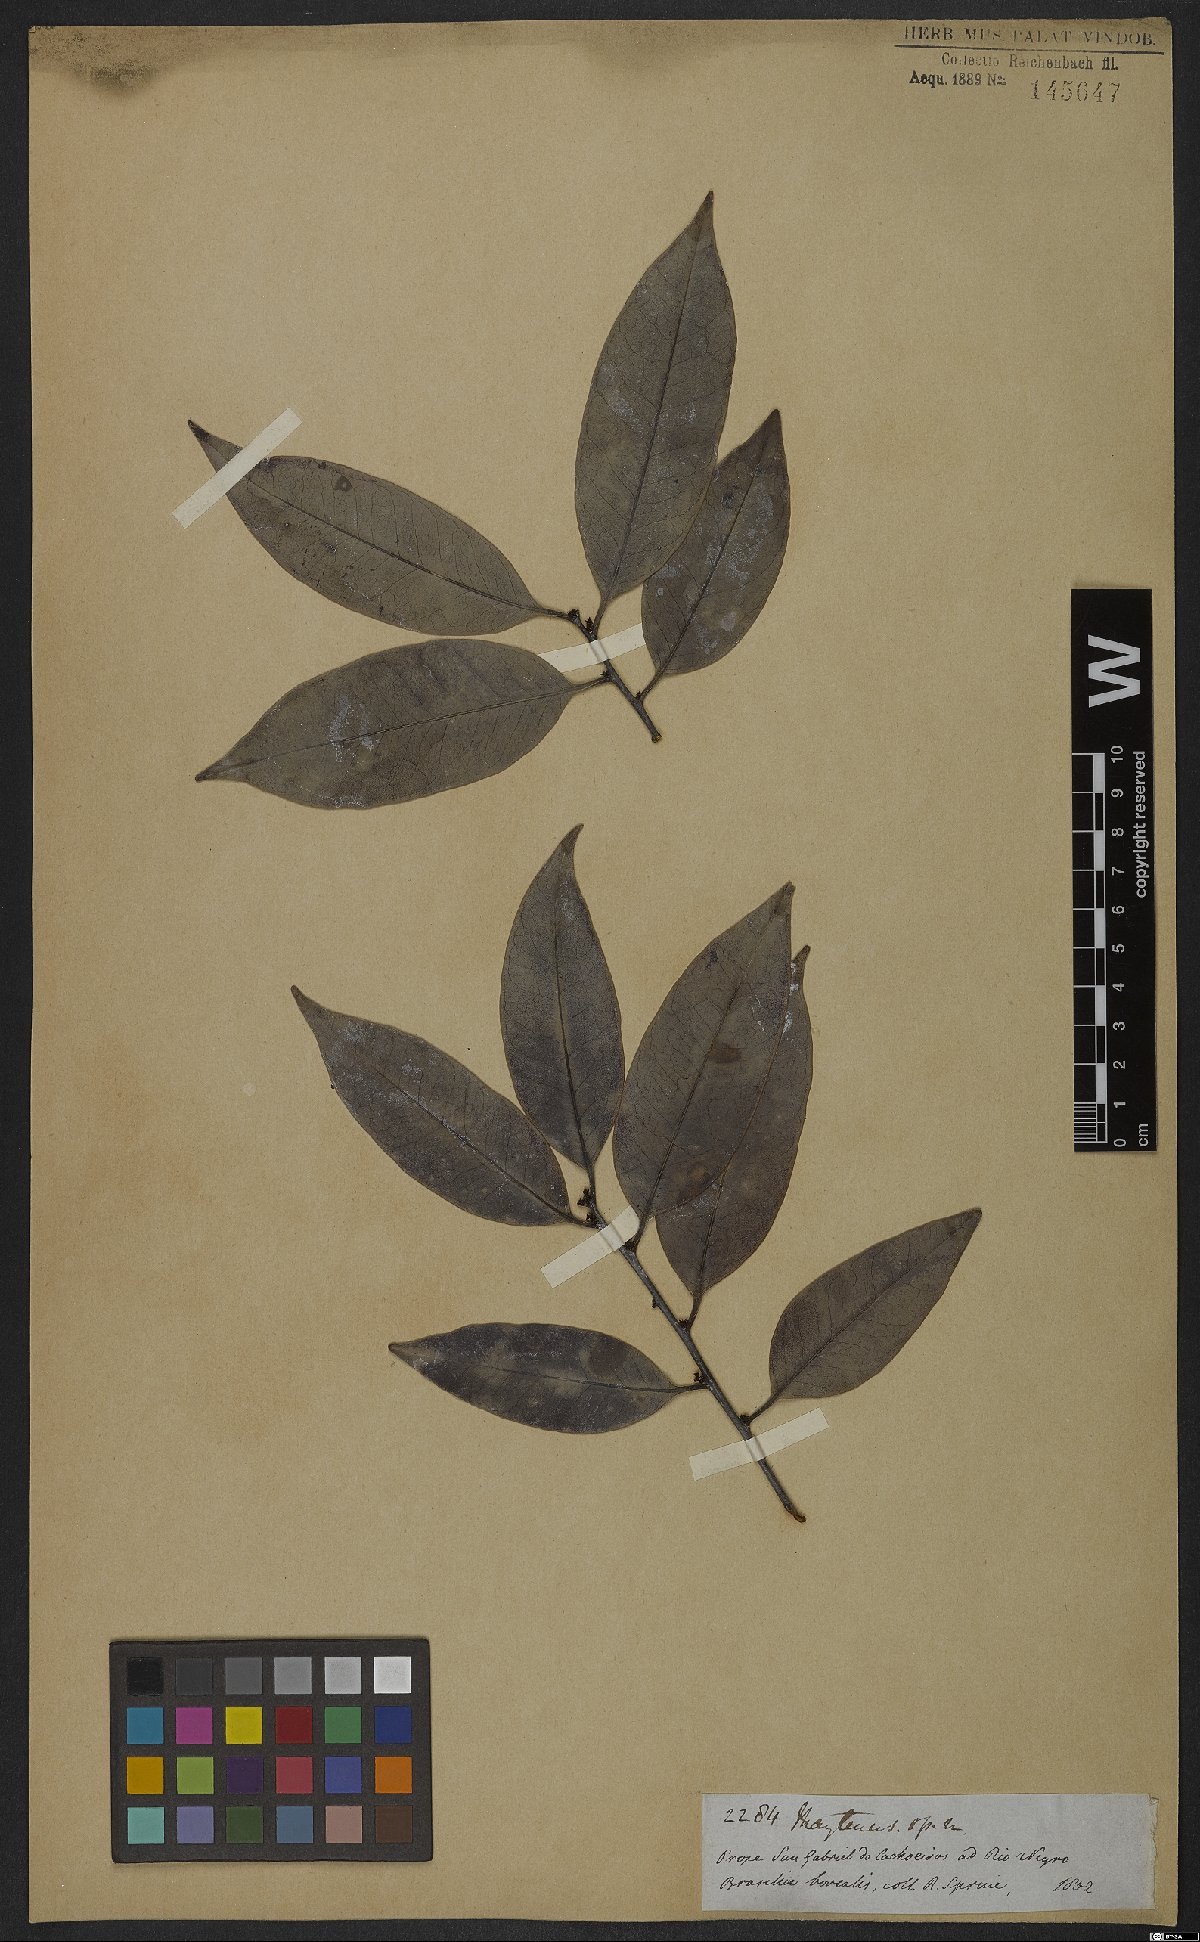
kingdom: Plantae
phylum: Tracheophyta
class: Magnoliopsida
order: Celastrales
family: Celastraceae
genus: Monteverdia
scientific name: Monteverdia laevis
